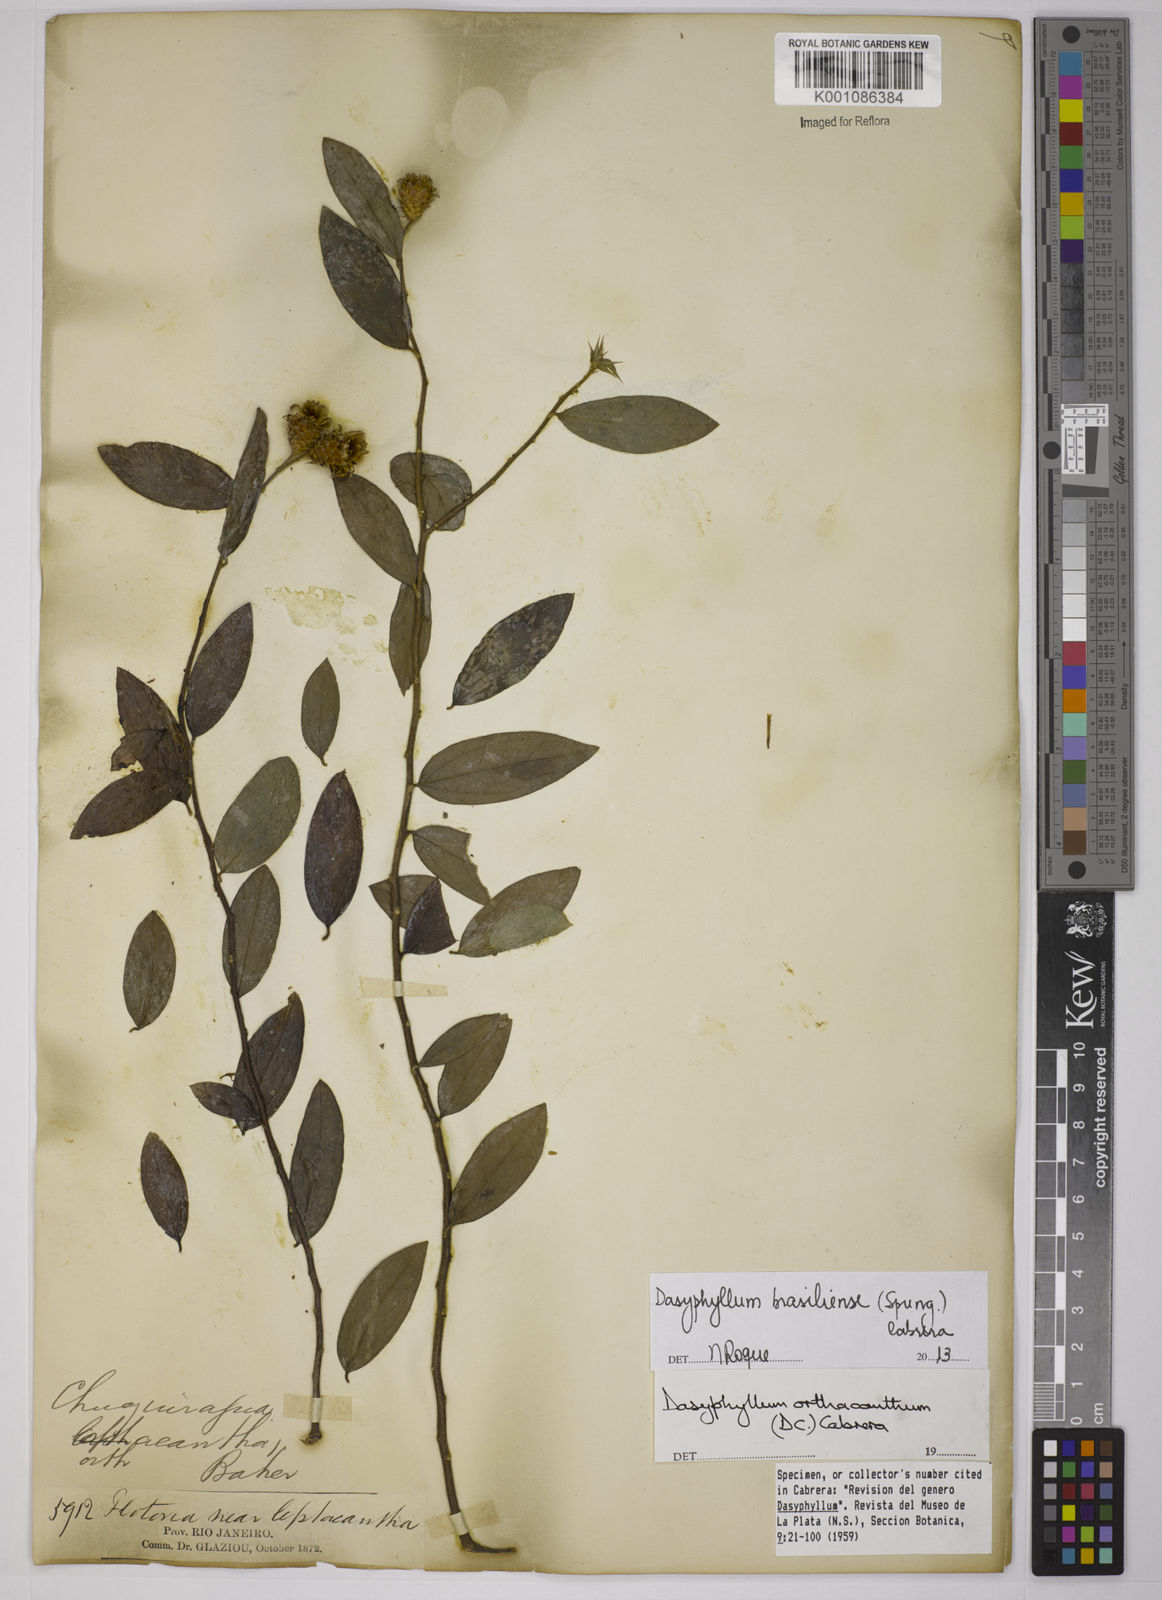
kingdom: Plantae
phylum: Tracheophyta
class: Magnoliopsida
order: Asterales
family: Asteraceae
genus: Dasyphyllum
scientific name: Dasyphyllum brasiliense
